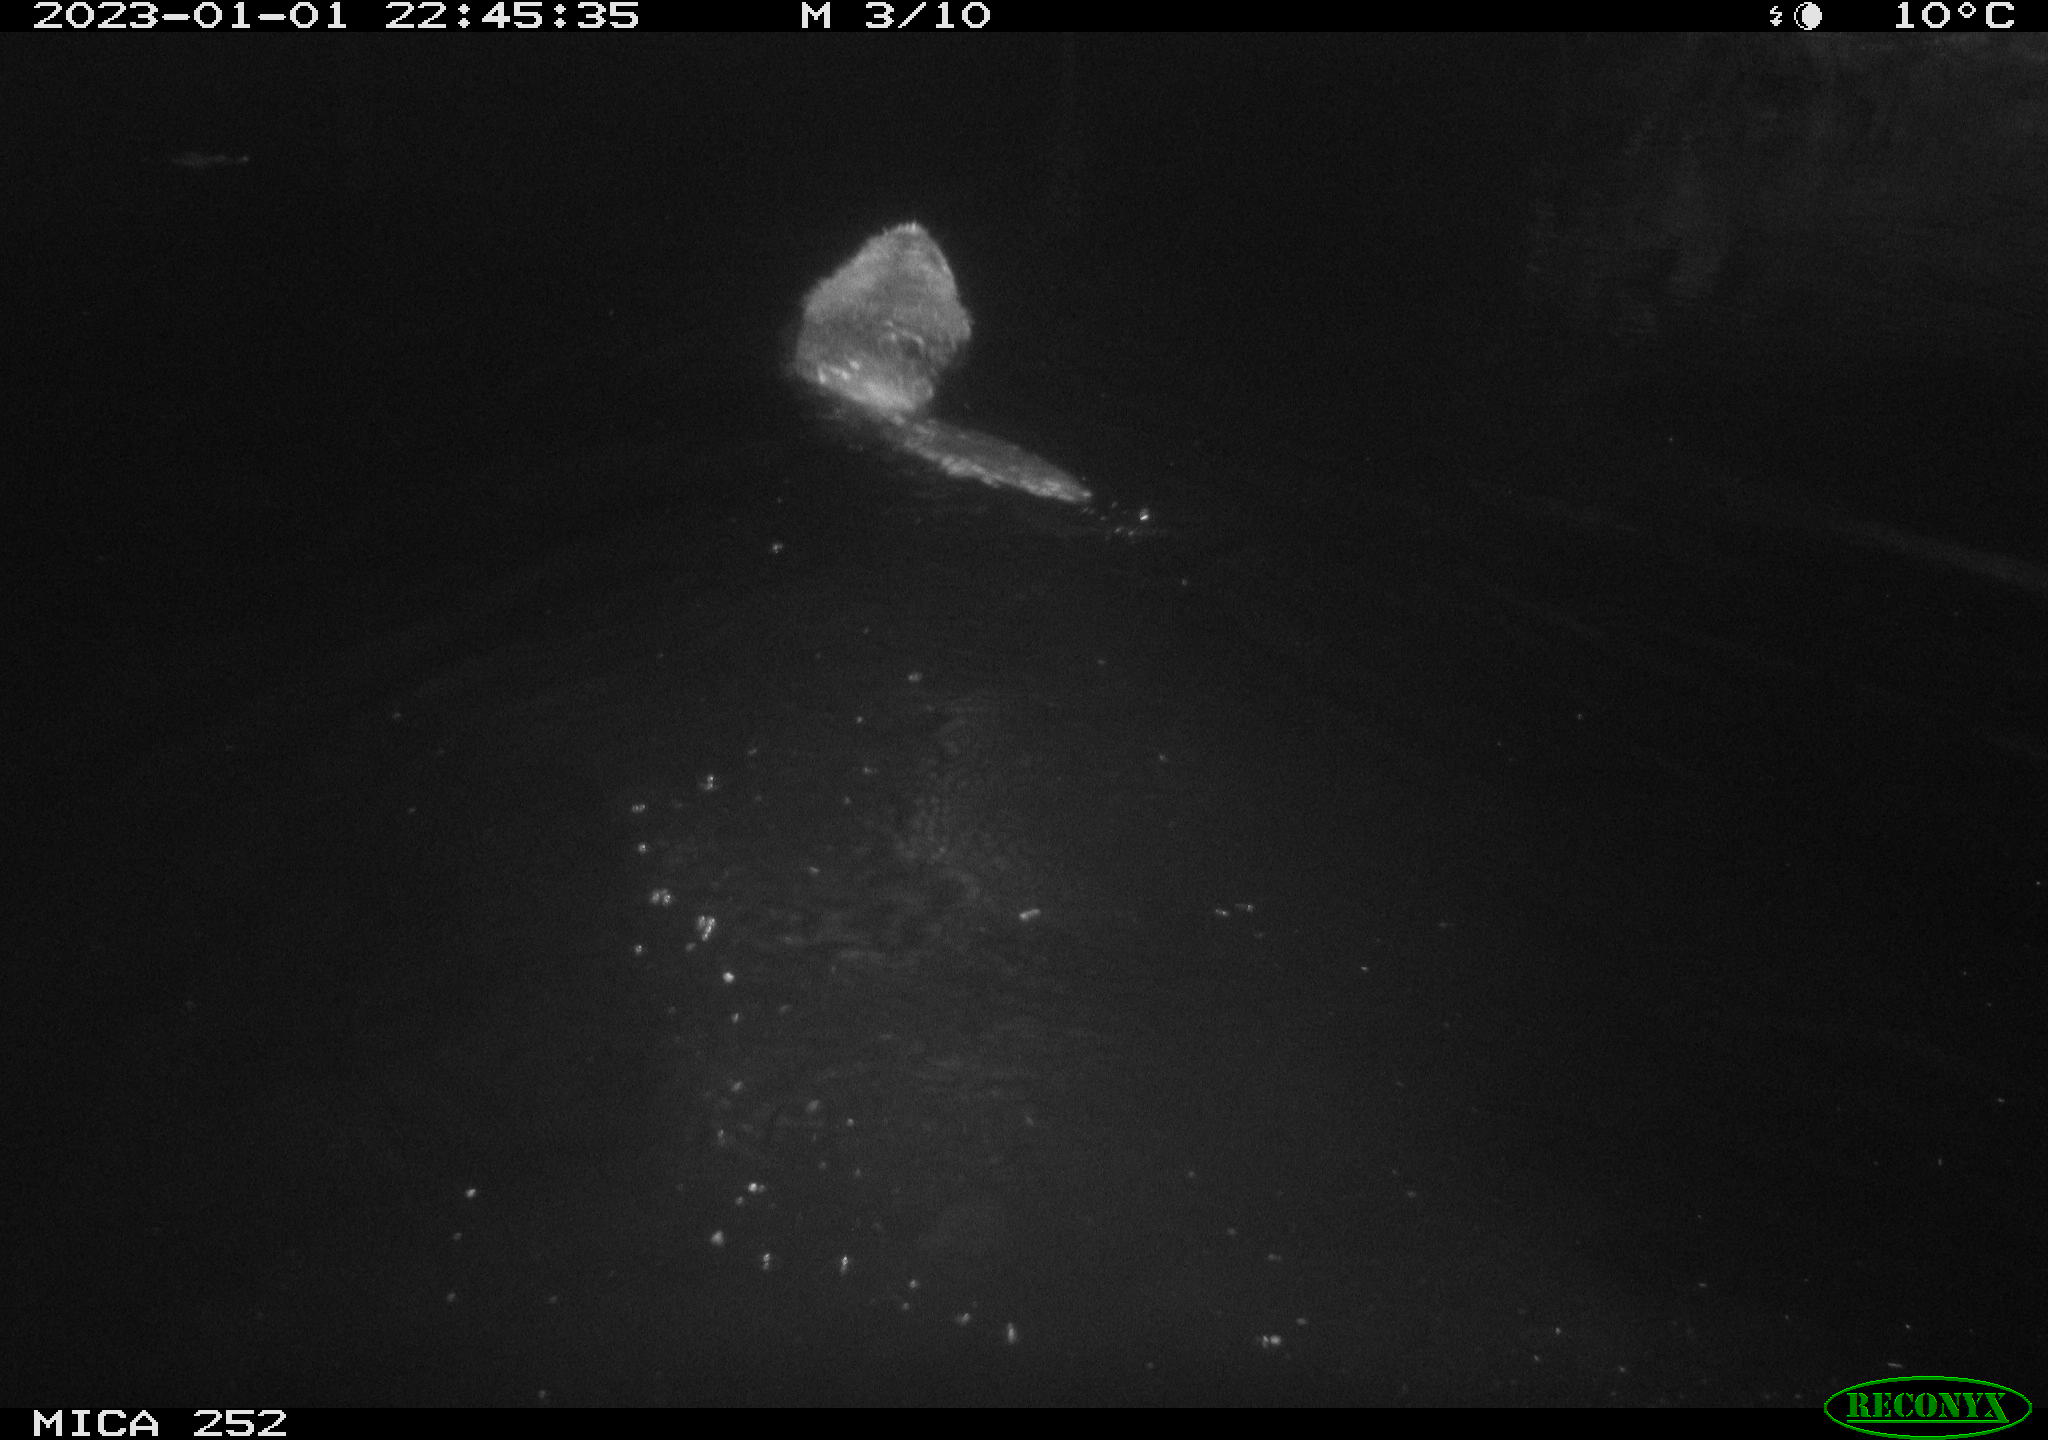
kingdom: Animalia
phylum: Chordata
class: Mammalia
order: Rodentia
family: Castoridae
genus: Castor
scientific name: Castor fiber
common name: Eurasian beaver
